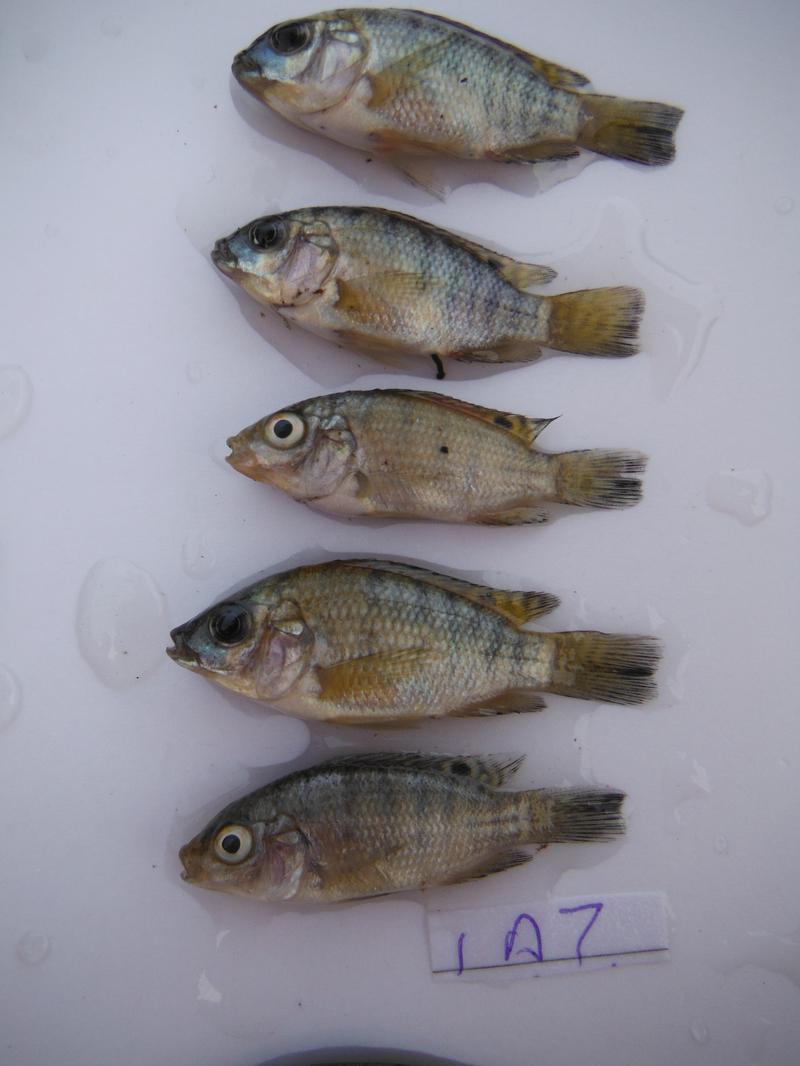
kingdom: Animalia
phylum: Chordata
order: Perciformes
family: Cichlidae
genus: Oreochromis
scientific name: Oreochromis urolepis
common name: Wami tilapia
